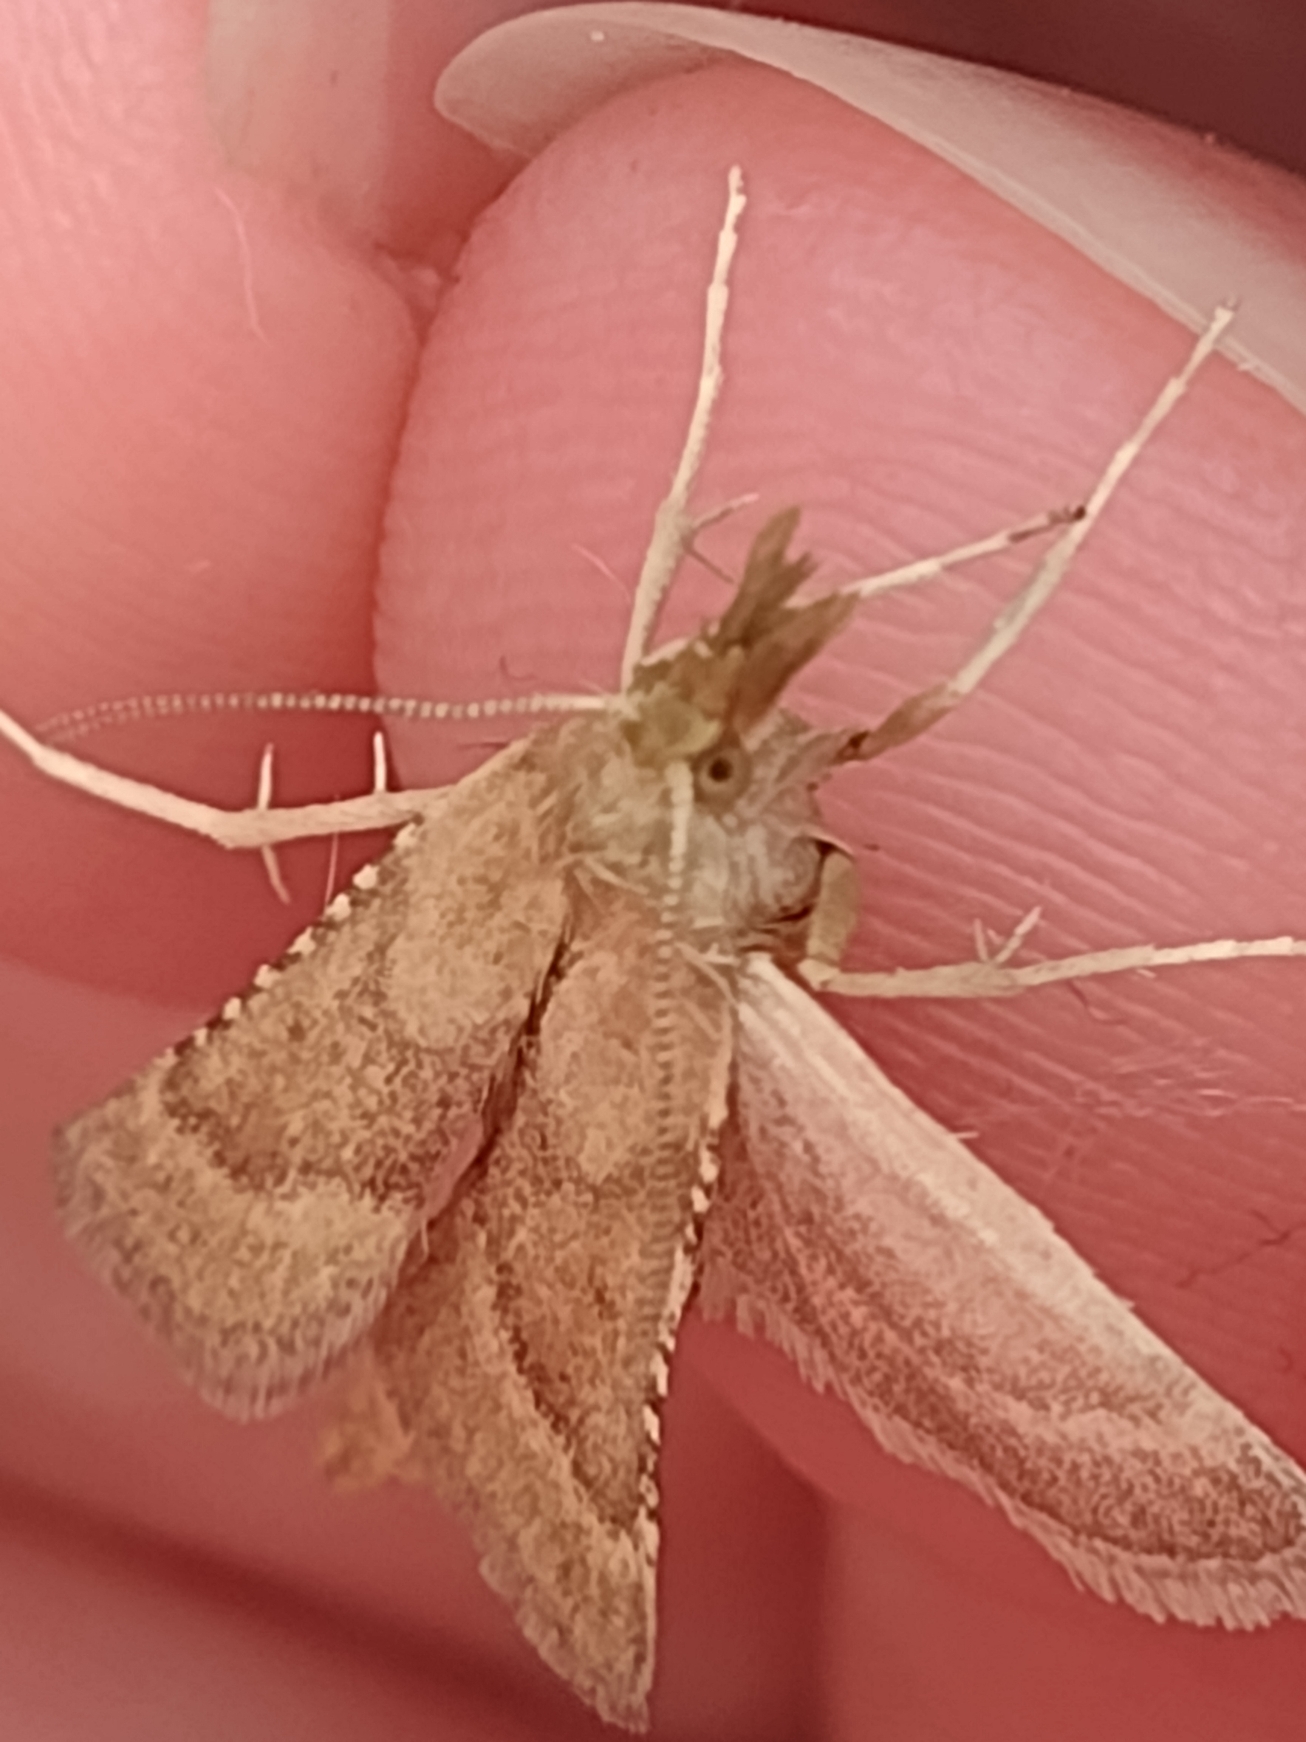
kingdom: Animalia
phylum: Arthropoda
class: Insecta
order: Lepidoptera
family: Pyralidae
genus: Synaphe
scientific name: Synaphe punctalis
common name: Spidsvinget moshalvmøl
